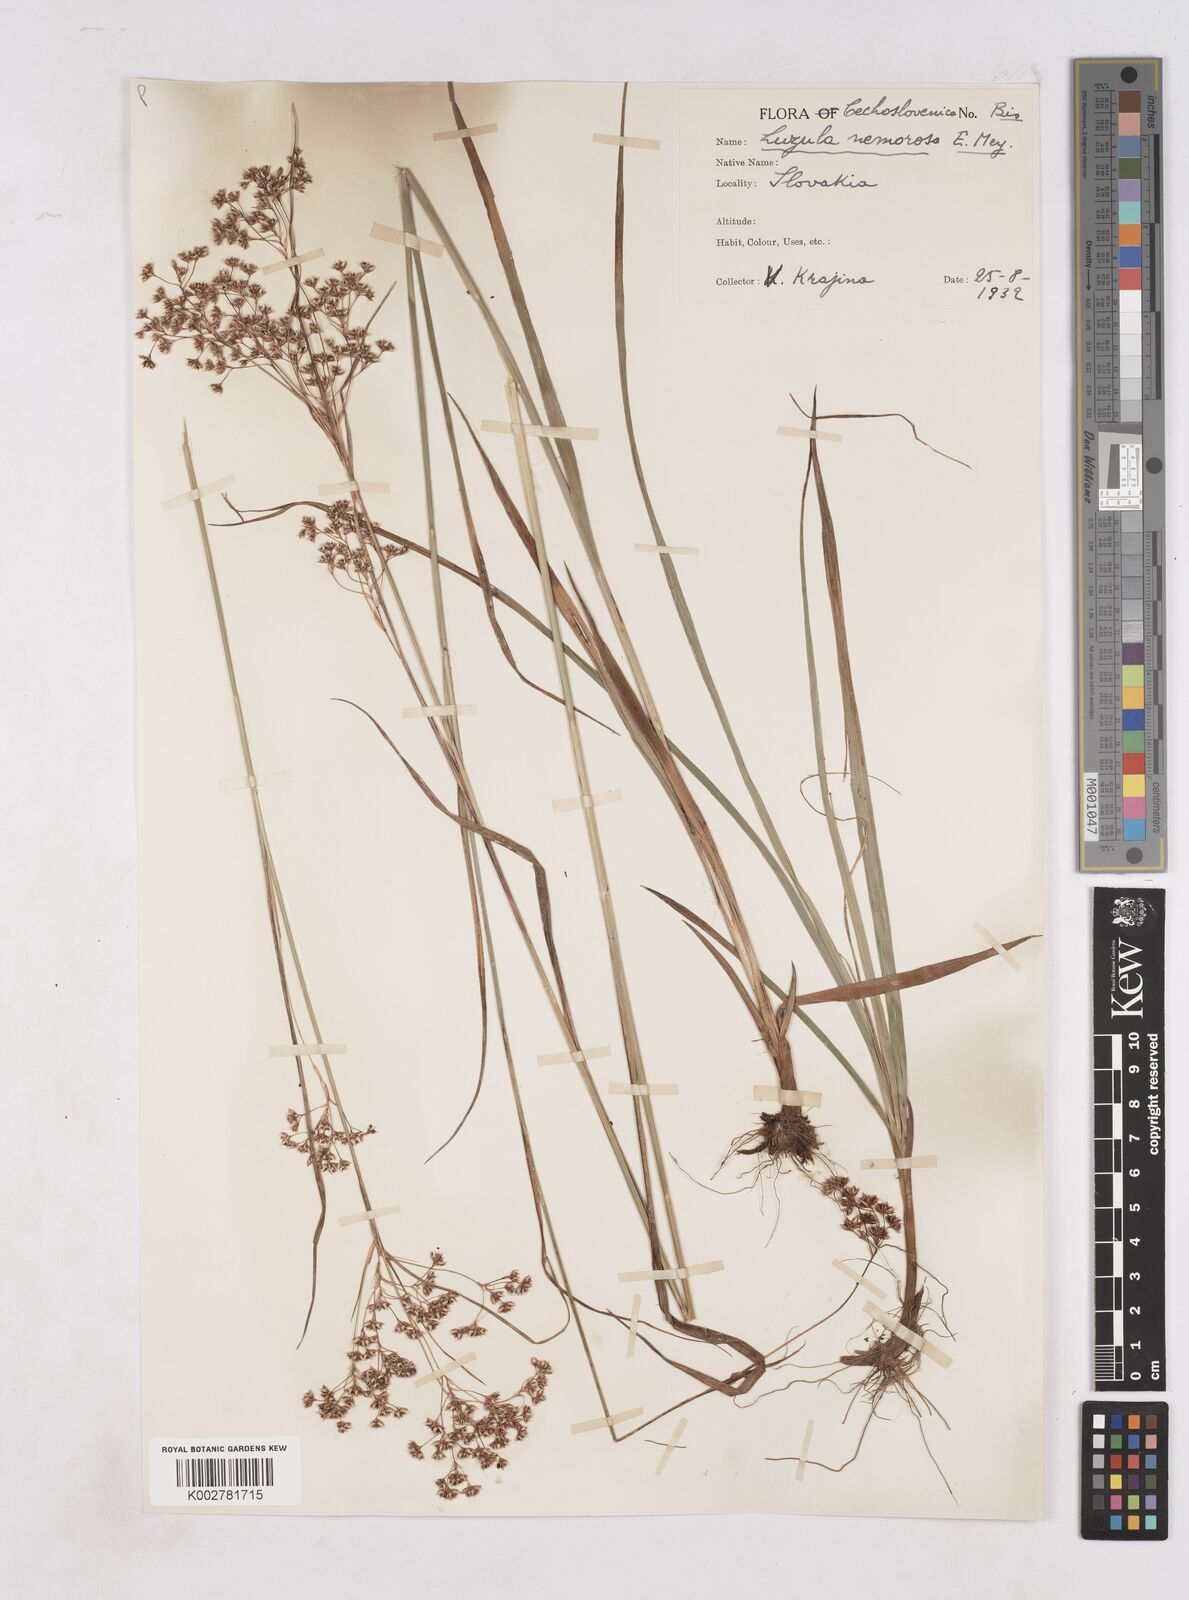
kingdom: Plantae
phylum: Tracheophyta
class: Liliopsida
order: Poales
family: Juncaceae
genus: Luzula
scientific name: Luzula luzuloides
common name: White wood-rush
